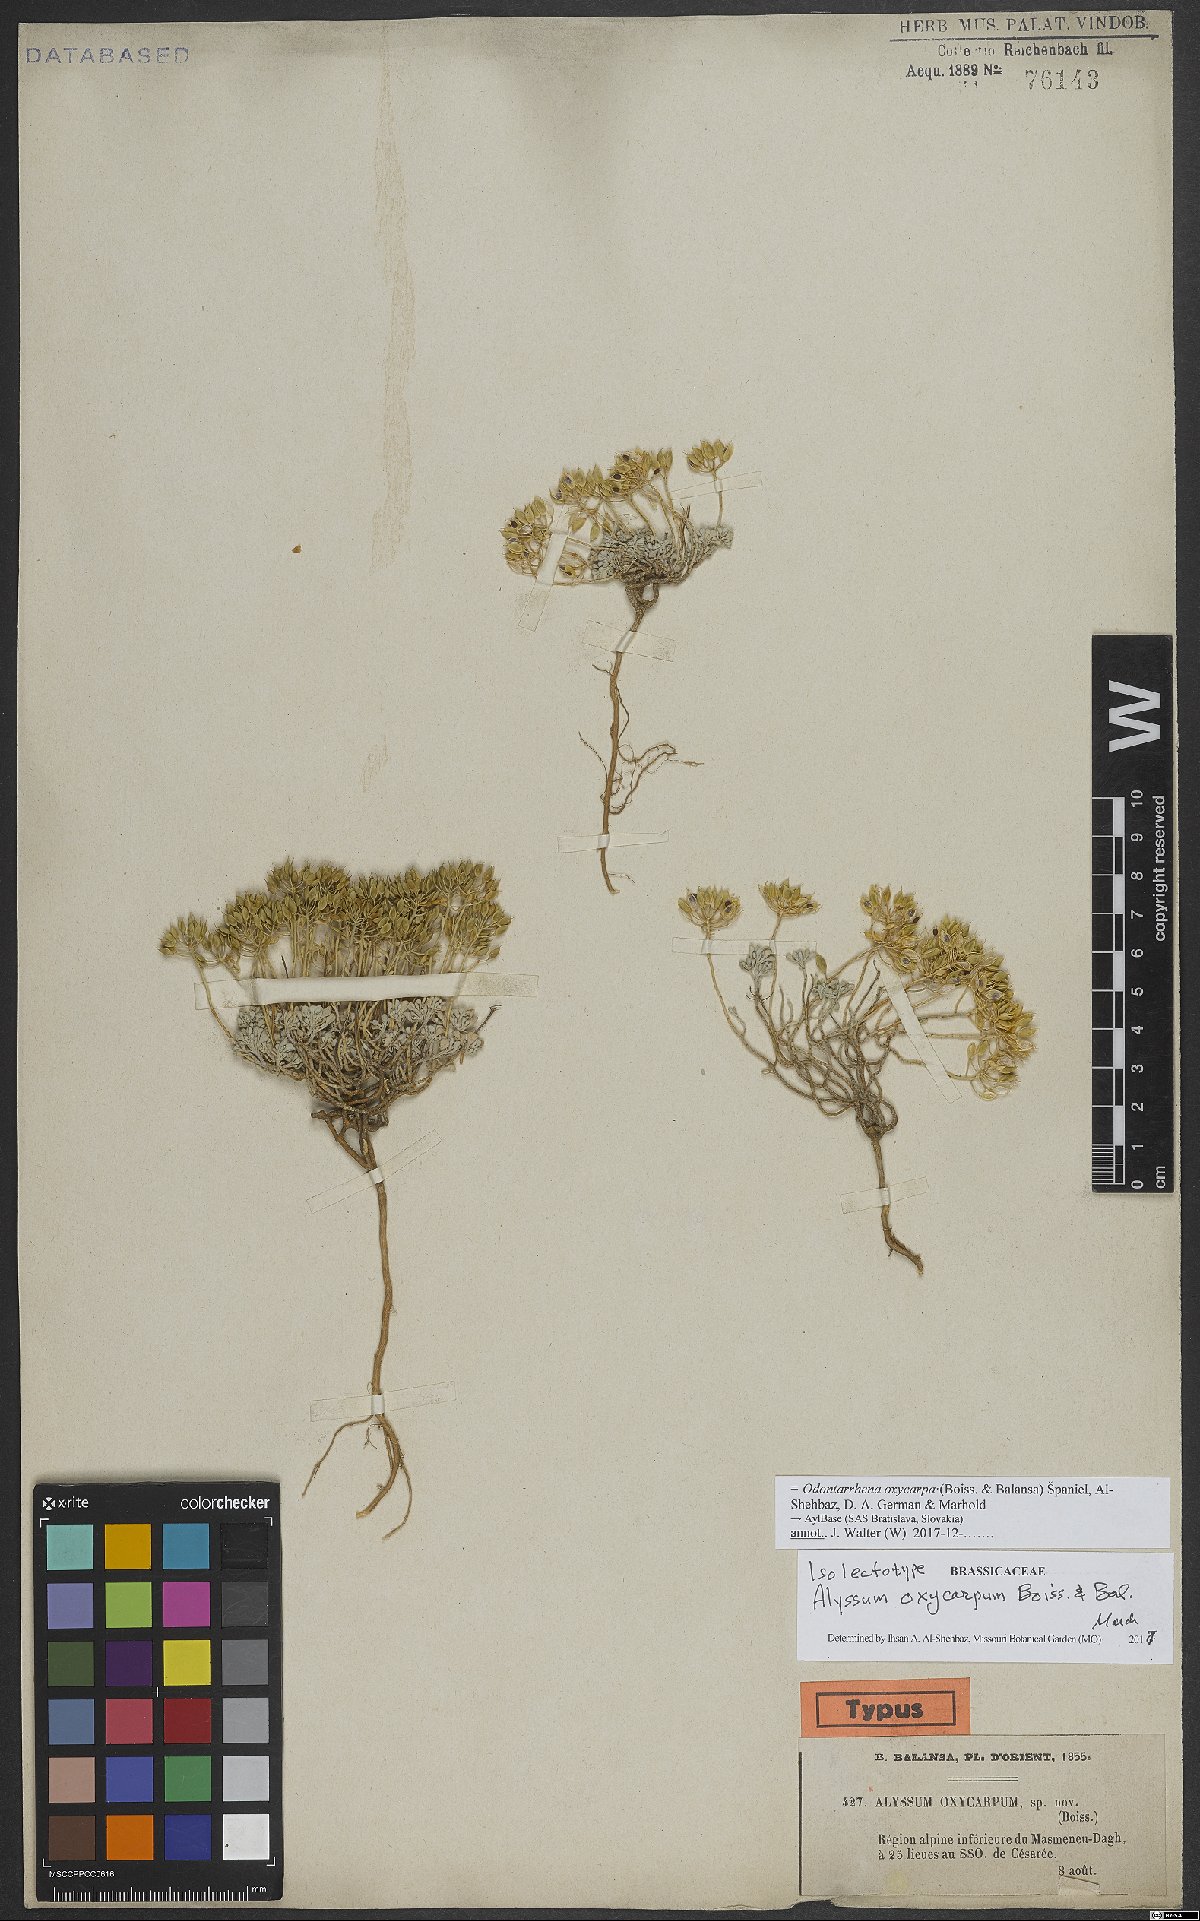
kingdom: Plantae
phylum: Tracheophyta
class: Magnoliopsida
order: Brassicales
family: Brassicaceae
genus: Odontarrhena
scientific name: Odontarrhena oxycarpa
